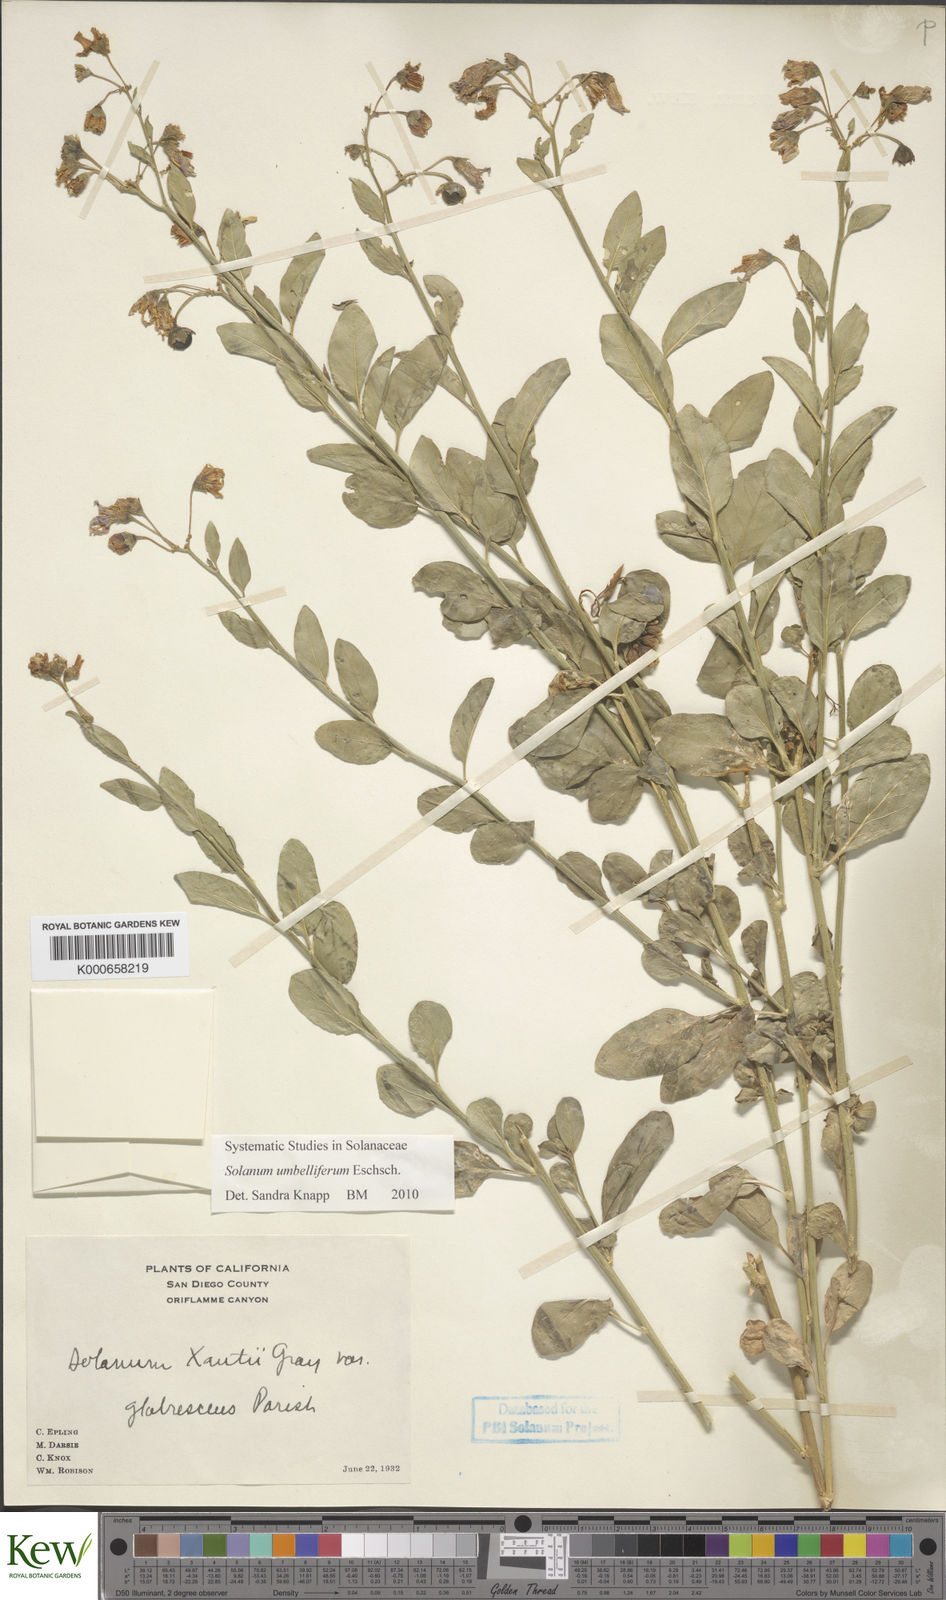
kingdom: Plantae
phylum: Tracheophyta
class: Magnoliopsida
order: Solanales
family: Solanaceae
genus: Solanum
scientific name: Solanum umbelliferum
